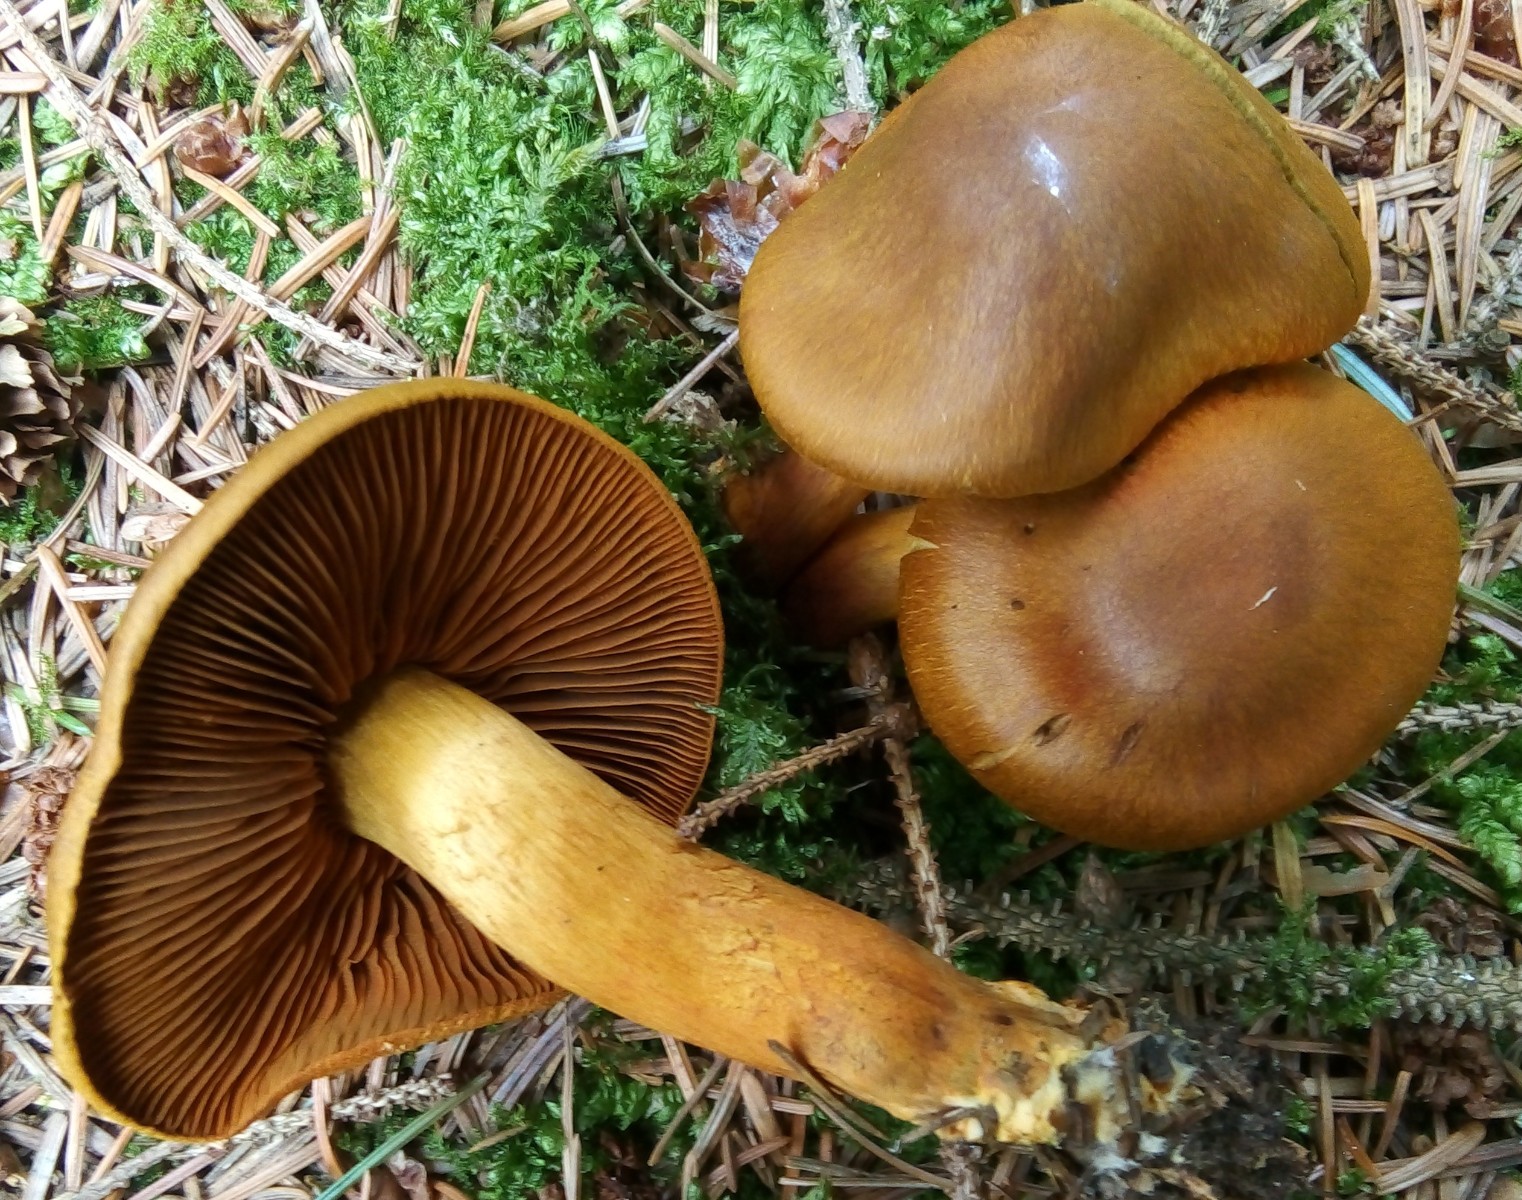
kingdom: Fungi
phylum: Basidiomycota
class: Agaricomycetes
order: Agaricales
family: Cortinariaceae
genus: Cortinarius
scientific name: Cortinarius malicorius
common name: grønkødet slørhat
